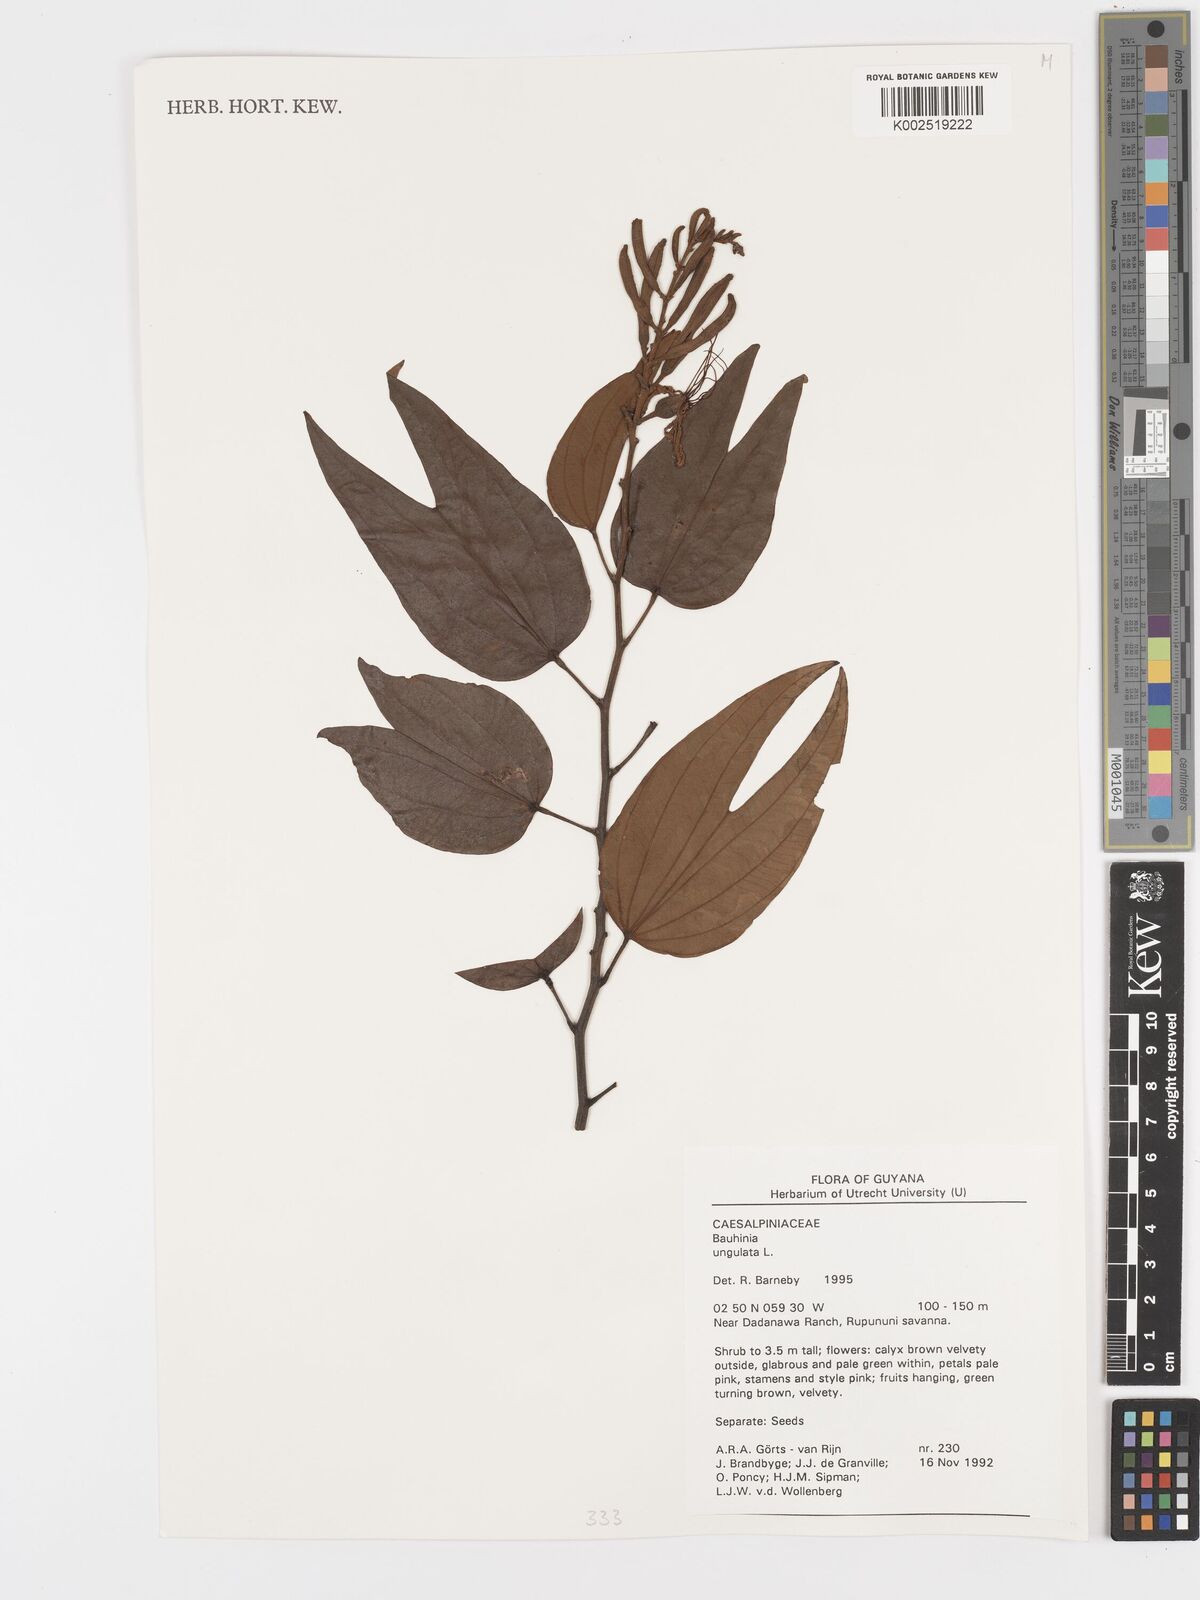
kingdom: Plantae
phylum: Tracheophyta
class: Magnoliopsida
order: Fabales
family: Fabaceae
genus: Bauhinia
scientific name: Bauhinia ungulata
